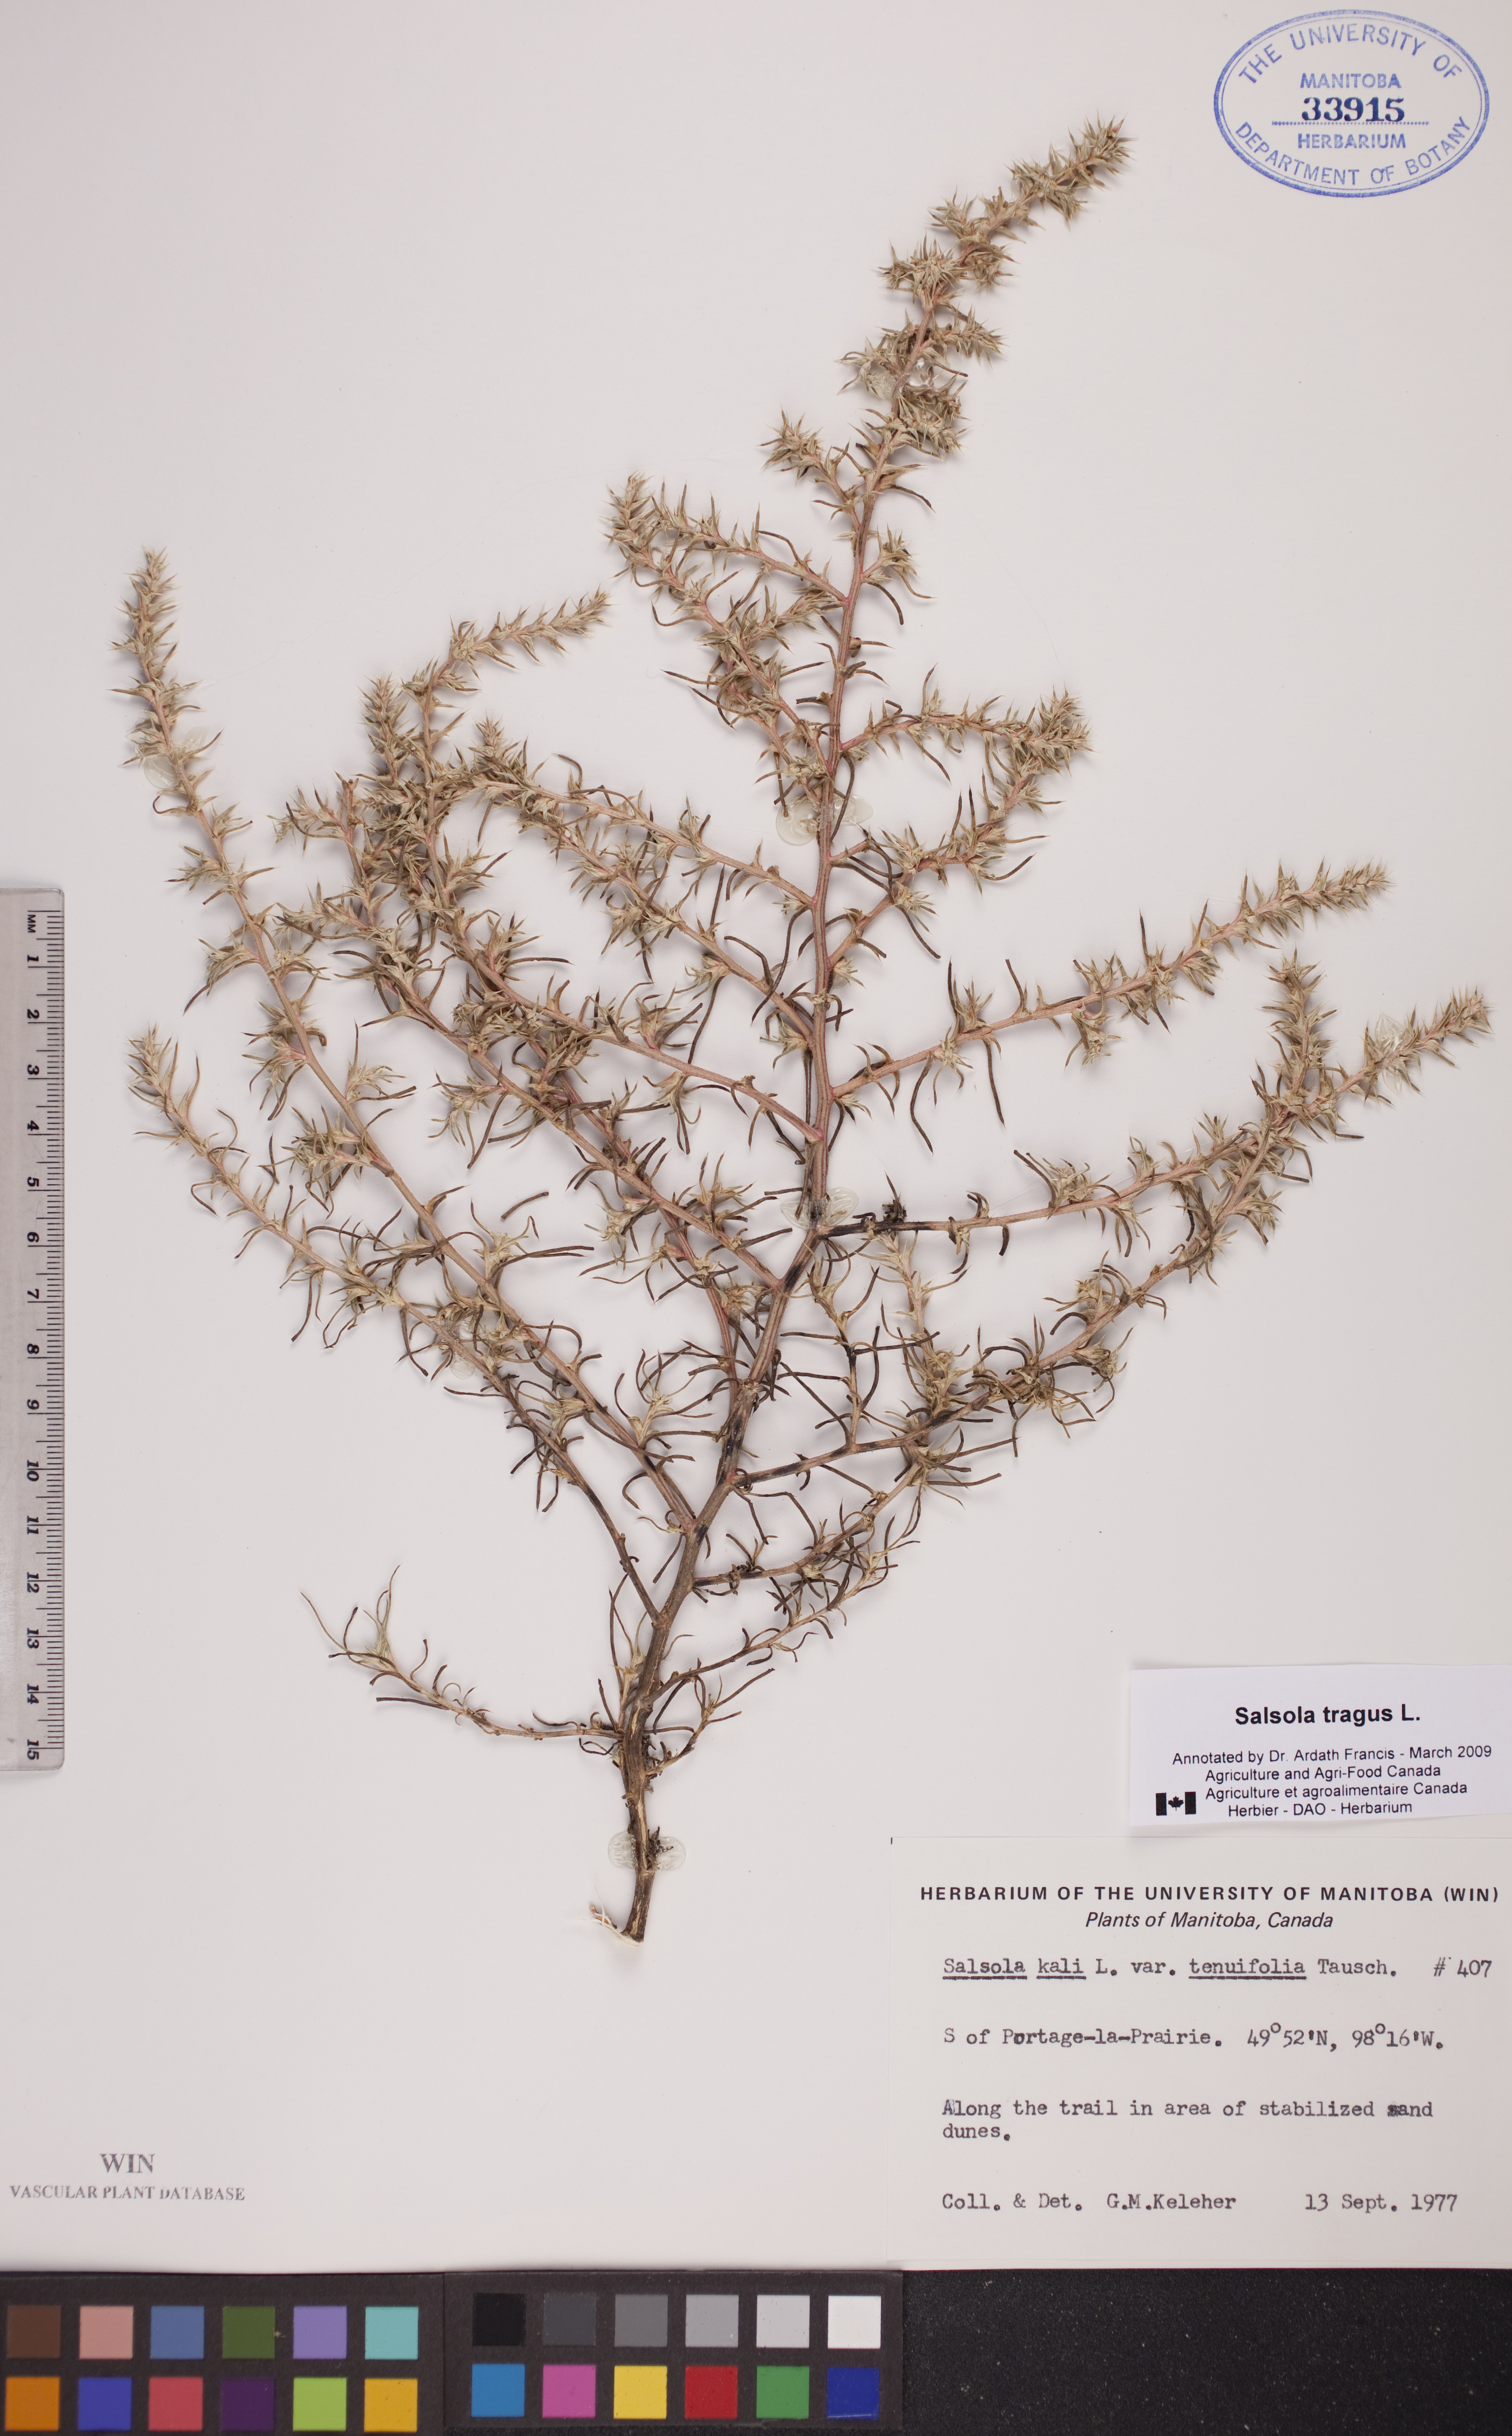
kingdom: Plantae
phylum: Tracheophyta
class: Magnoliopsida
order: Caryophyllales
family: Amaranthaceae
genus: Salsola
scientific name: Salsola tragus
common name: Prickly russian thistle
